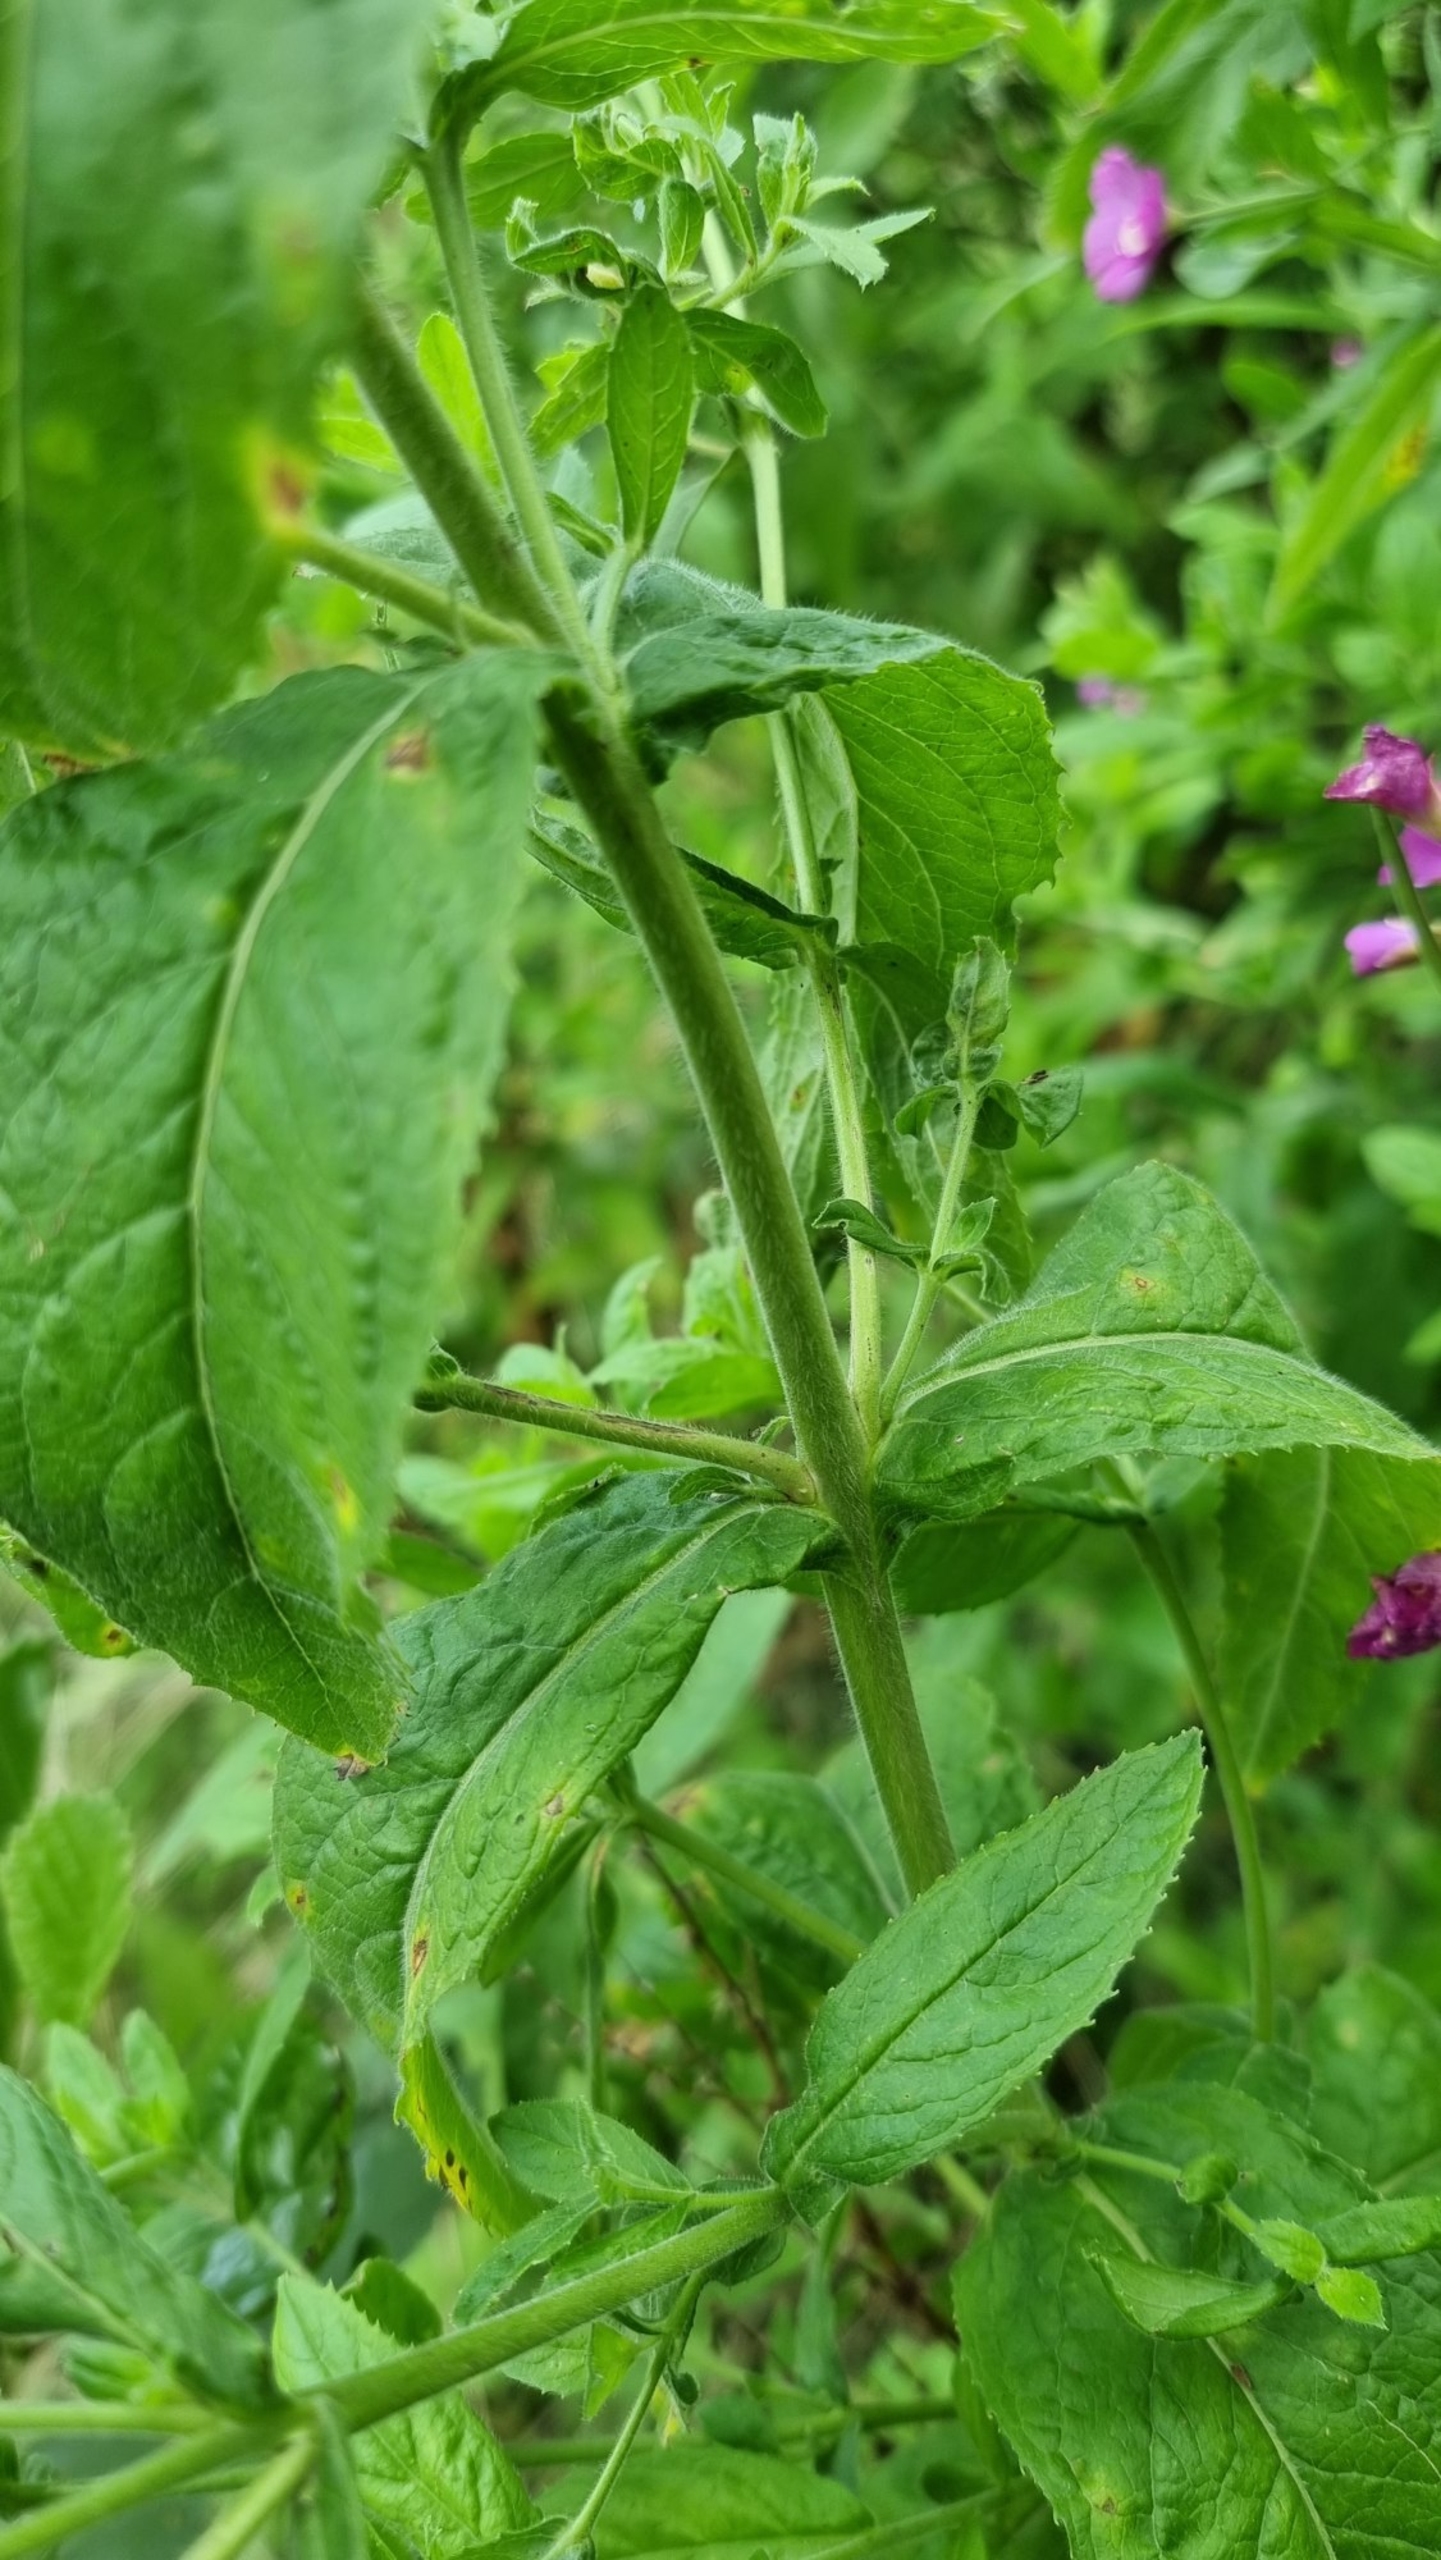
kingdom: Plantae
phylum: Tracheophyta
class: Magnoliopsida
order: Myrtales
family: Onagraceae
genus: Epilobium
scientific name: Epilobium hirsutum
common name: Lådden dueurt
